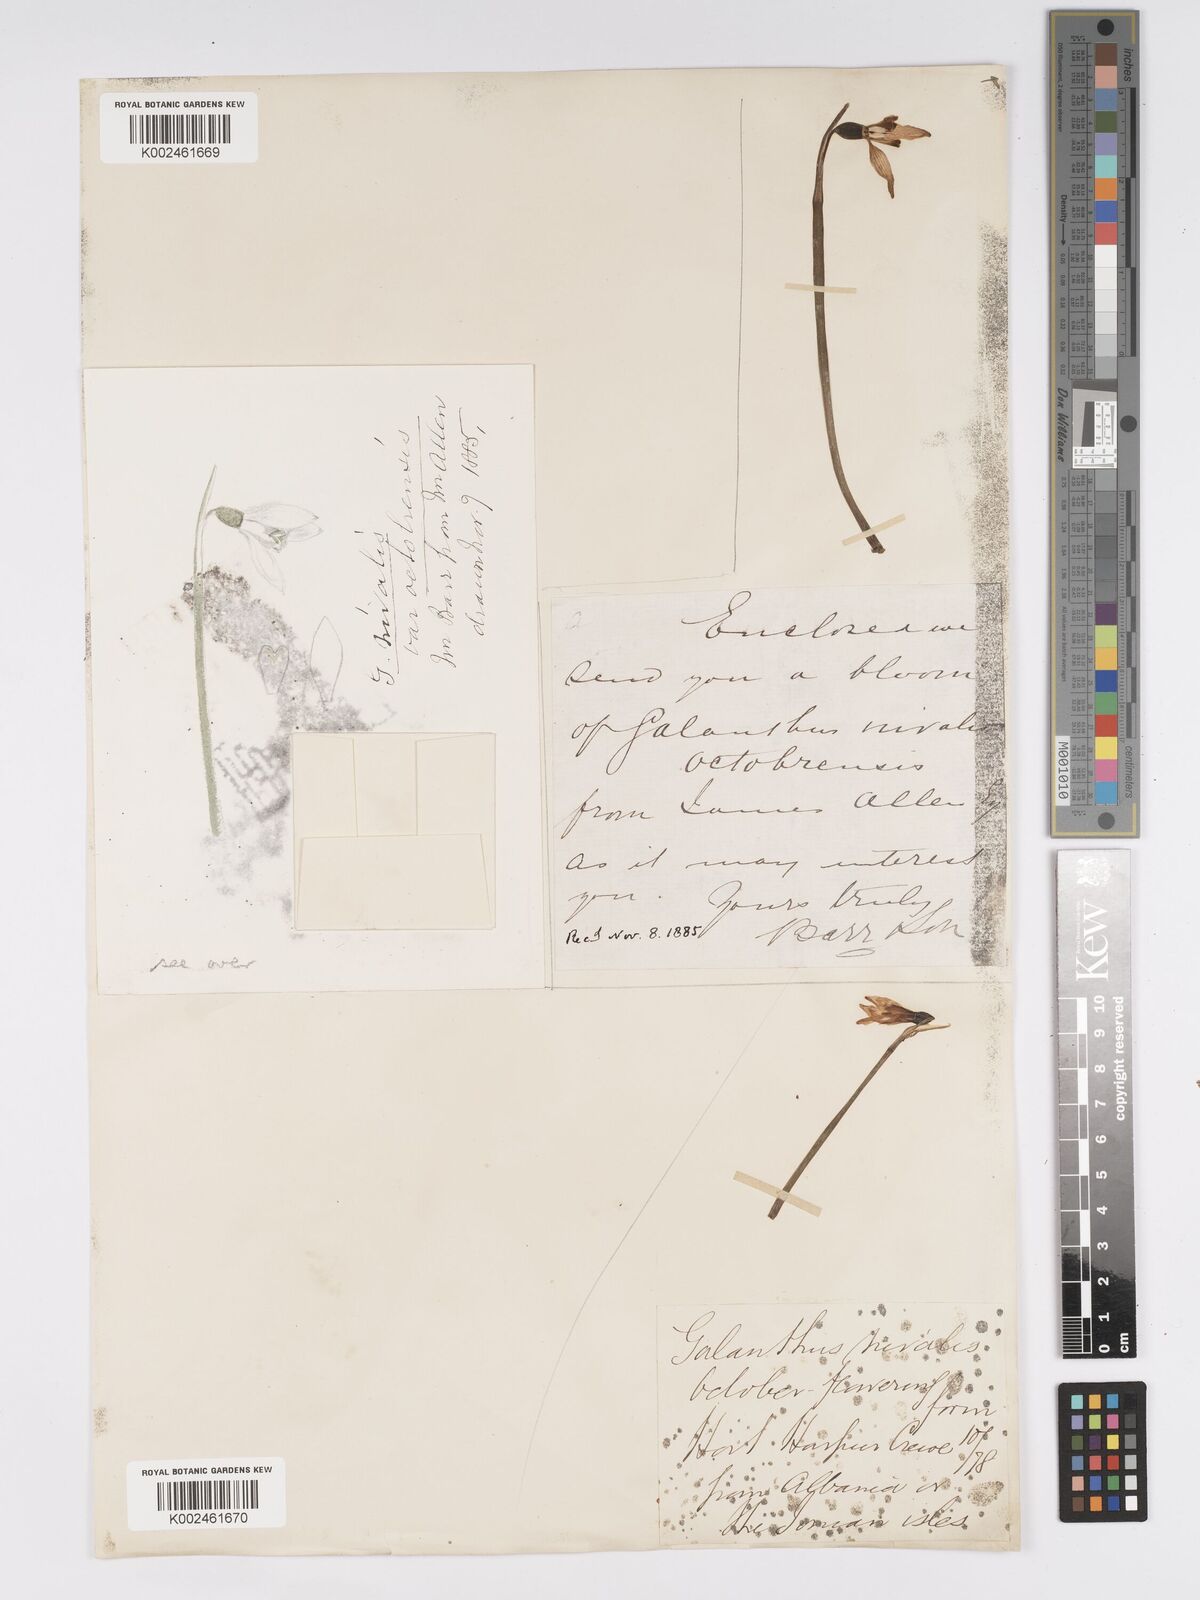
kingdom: Plantae
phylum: Tracheophyta
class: Liliopsida
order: Asparagales
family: Amaryllidaceae
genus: Galanthus
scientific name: Galanthus
